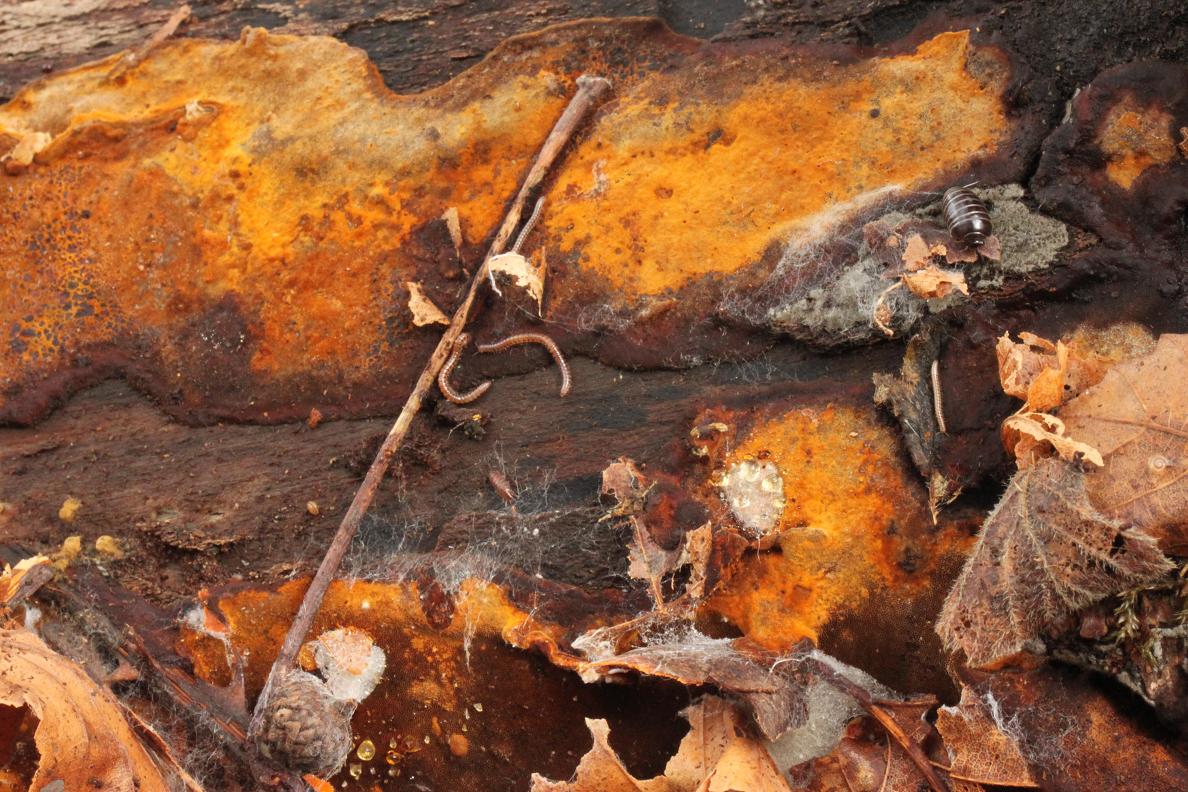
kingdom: Fungi
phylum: Basidiomycota
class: Agaricomycetes
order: Hymenochaetales
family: Hymenochaetaceae
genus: Phellinus
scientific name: Phellinus laevigatus
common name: glat ildporesvamp
